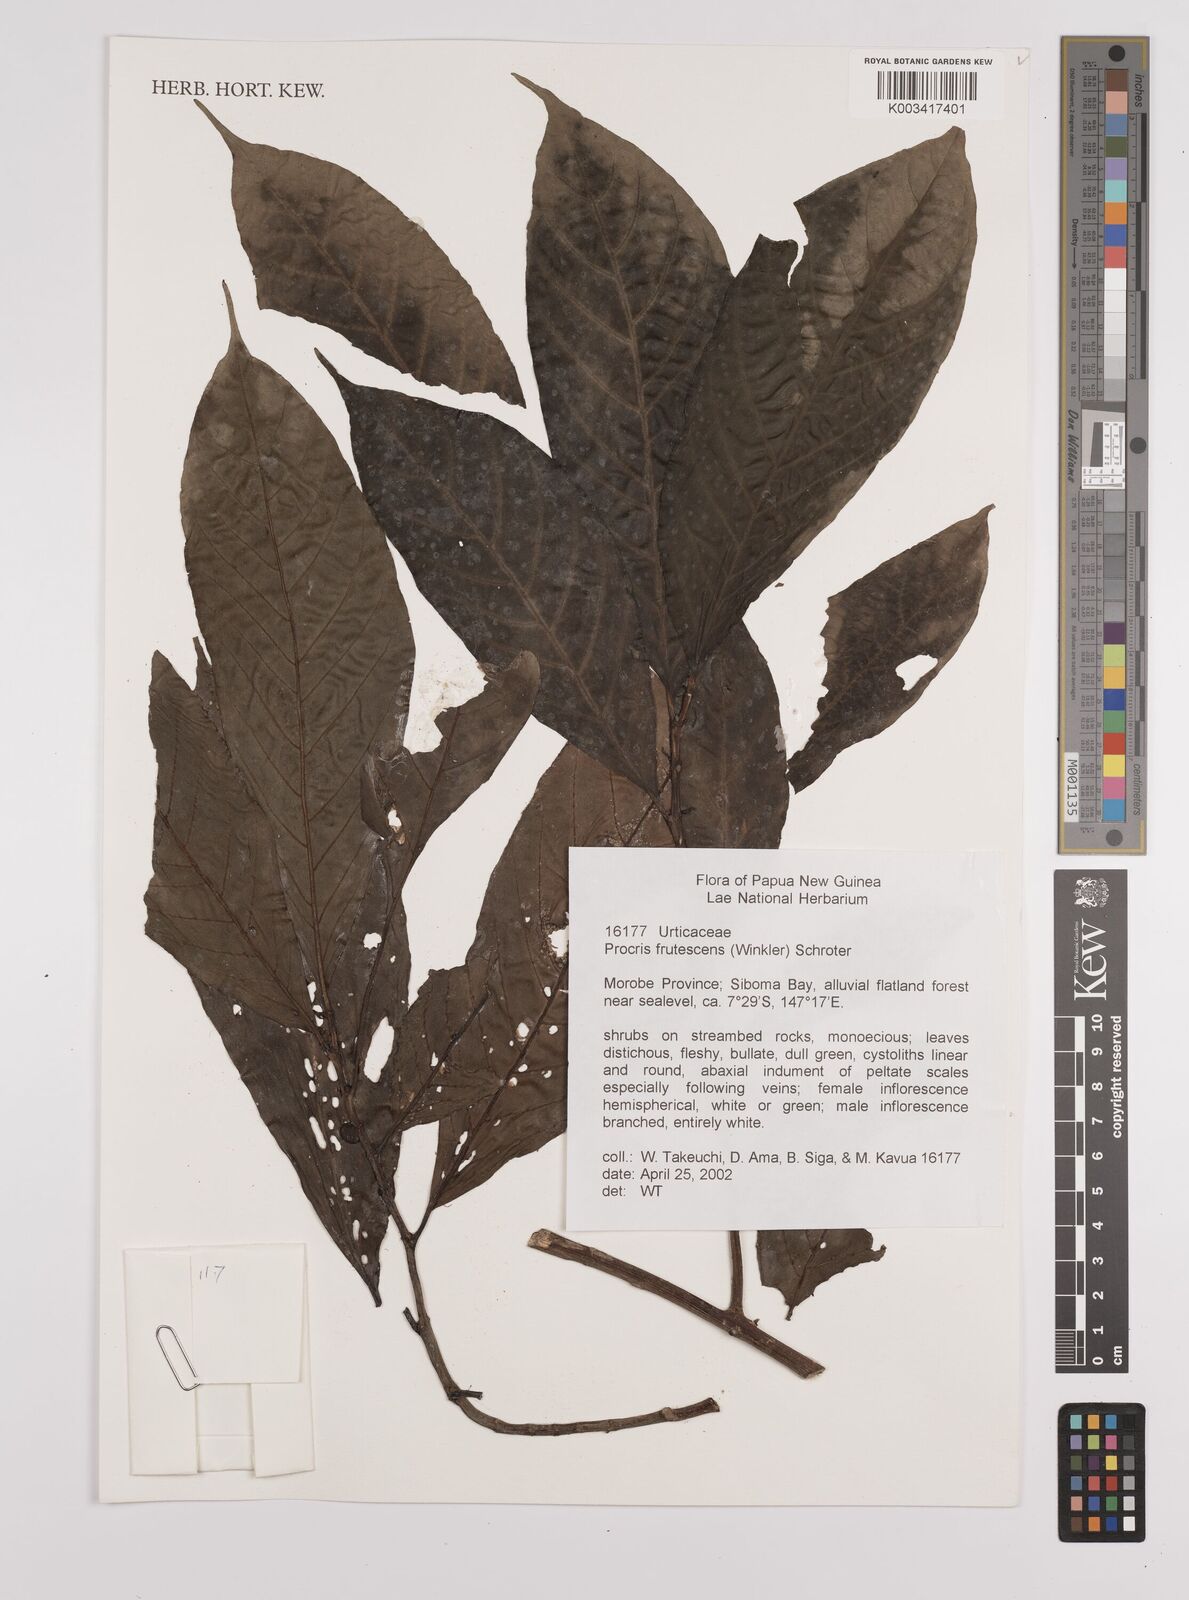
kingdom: Plantae
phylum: Tracheophyta
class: Magnoliopsida
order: Rosales
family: Urticaceae
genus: Procris
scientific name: Procris frutescens
